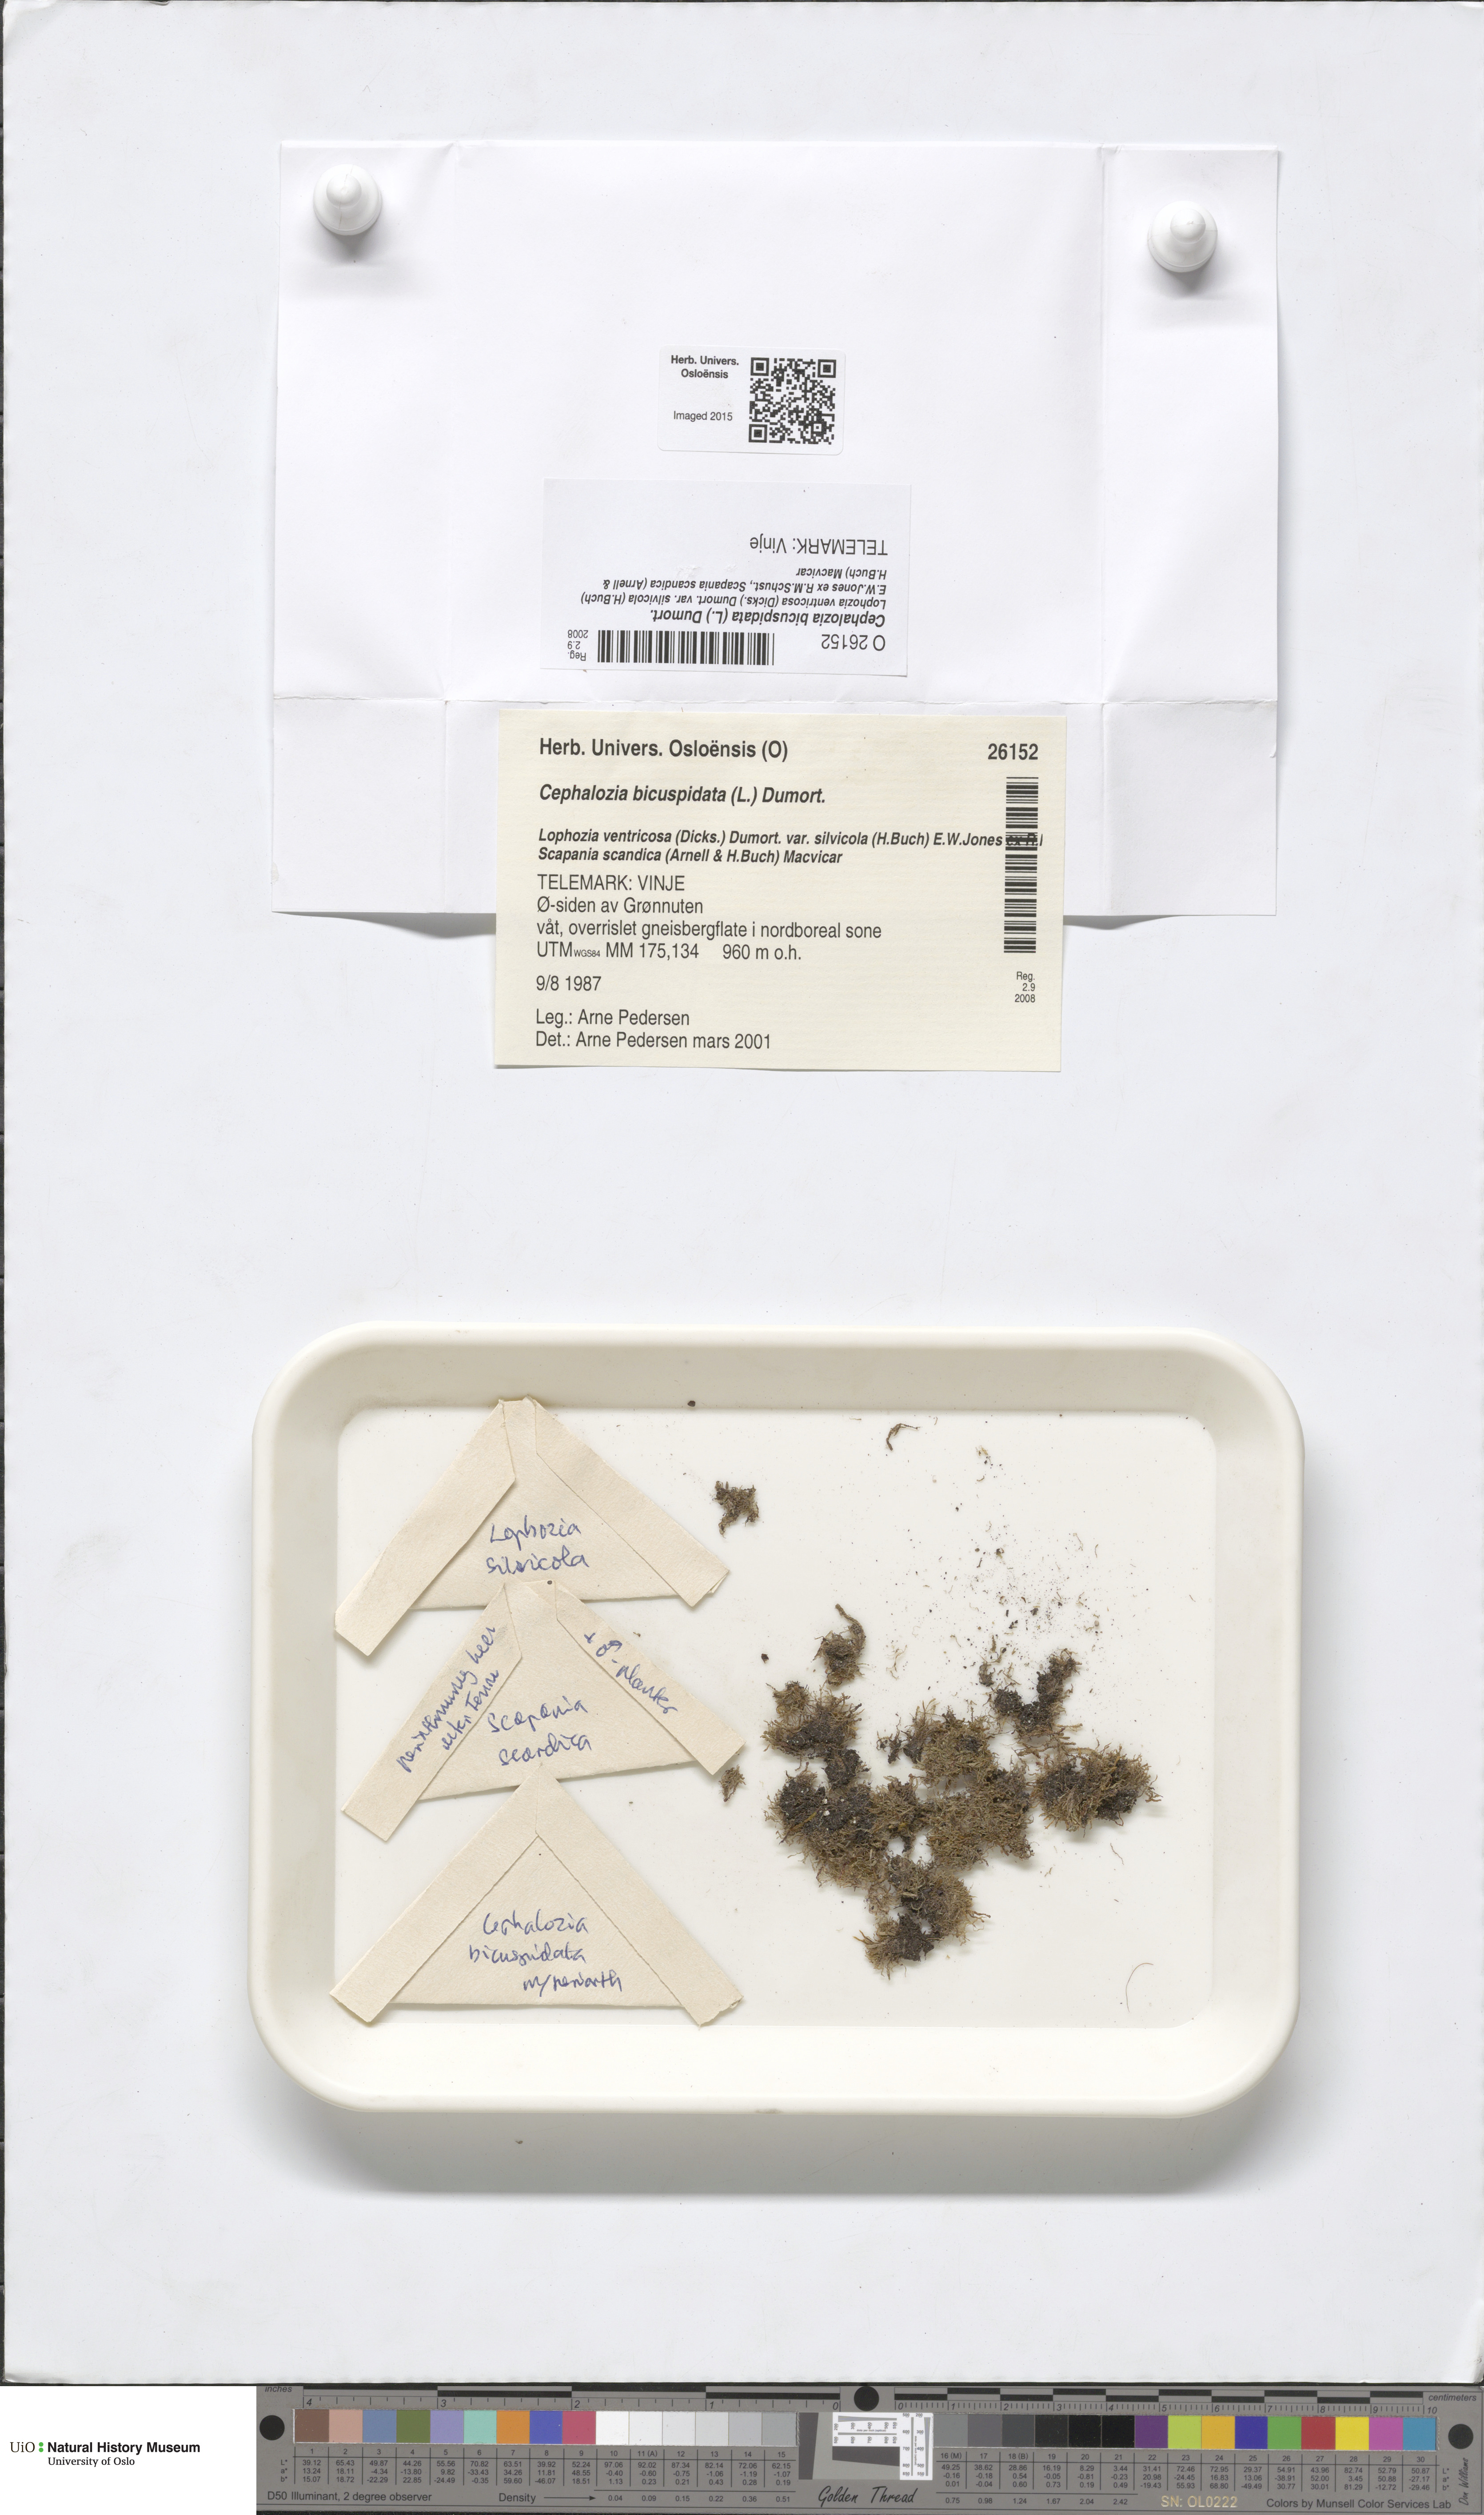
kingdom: Plantae
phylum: Marchantiophyta
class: Jungermanniopsida
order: Jungermanniales
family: Cephaloziaceae
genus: Cephalozia
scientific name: Cephalozia bicuspidata
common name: Two-horned pincerwort
